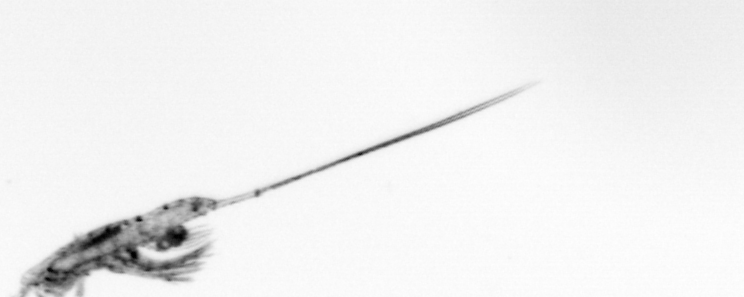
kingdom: Animalia
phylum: Arthropoda
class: Copepoda
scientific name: Copepoda
